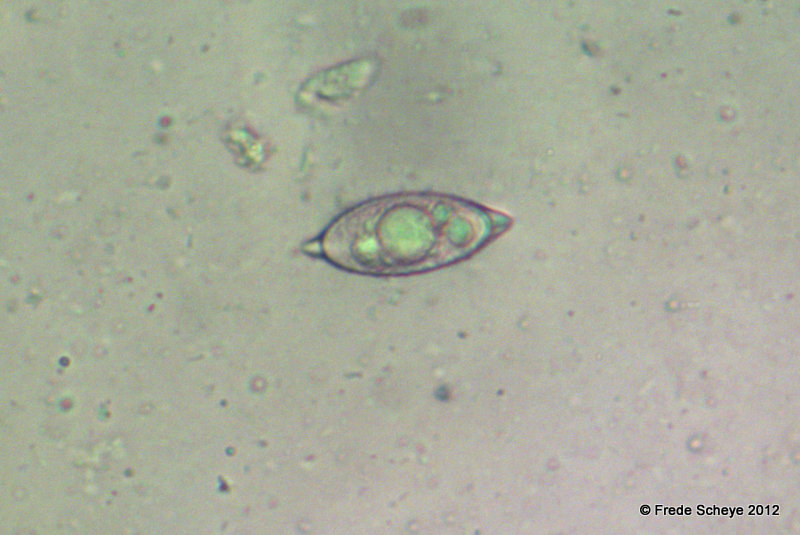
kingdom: Fungi
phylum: Ascomycota
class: Pezizomycetes
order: Pezizales
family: Discinaceae
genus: Discina
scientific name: Discina ancilis
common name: udbredt stenmorkel
